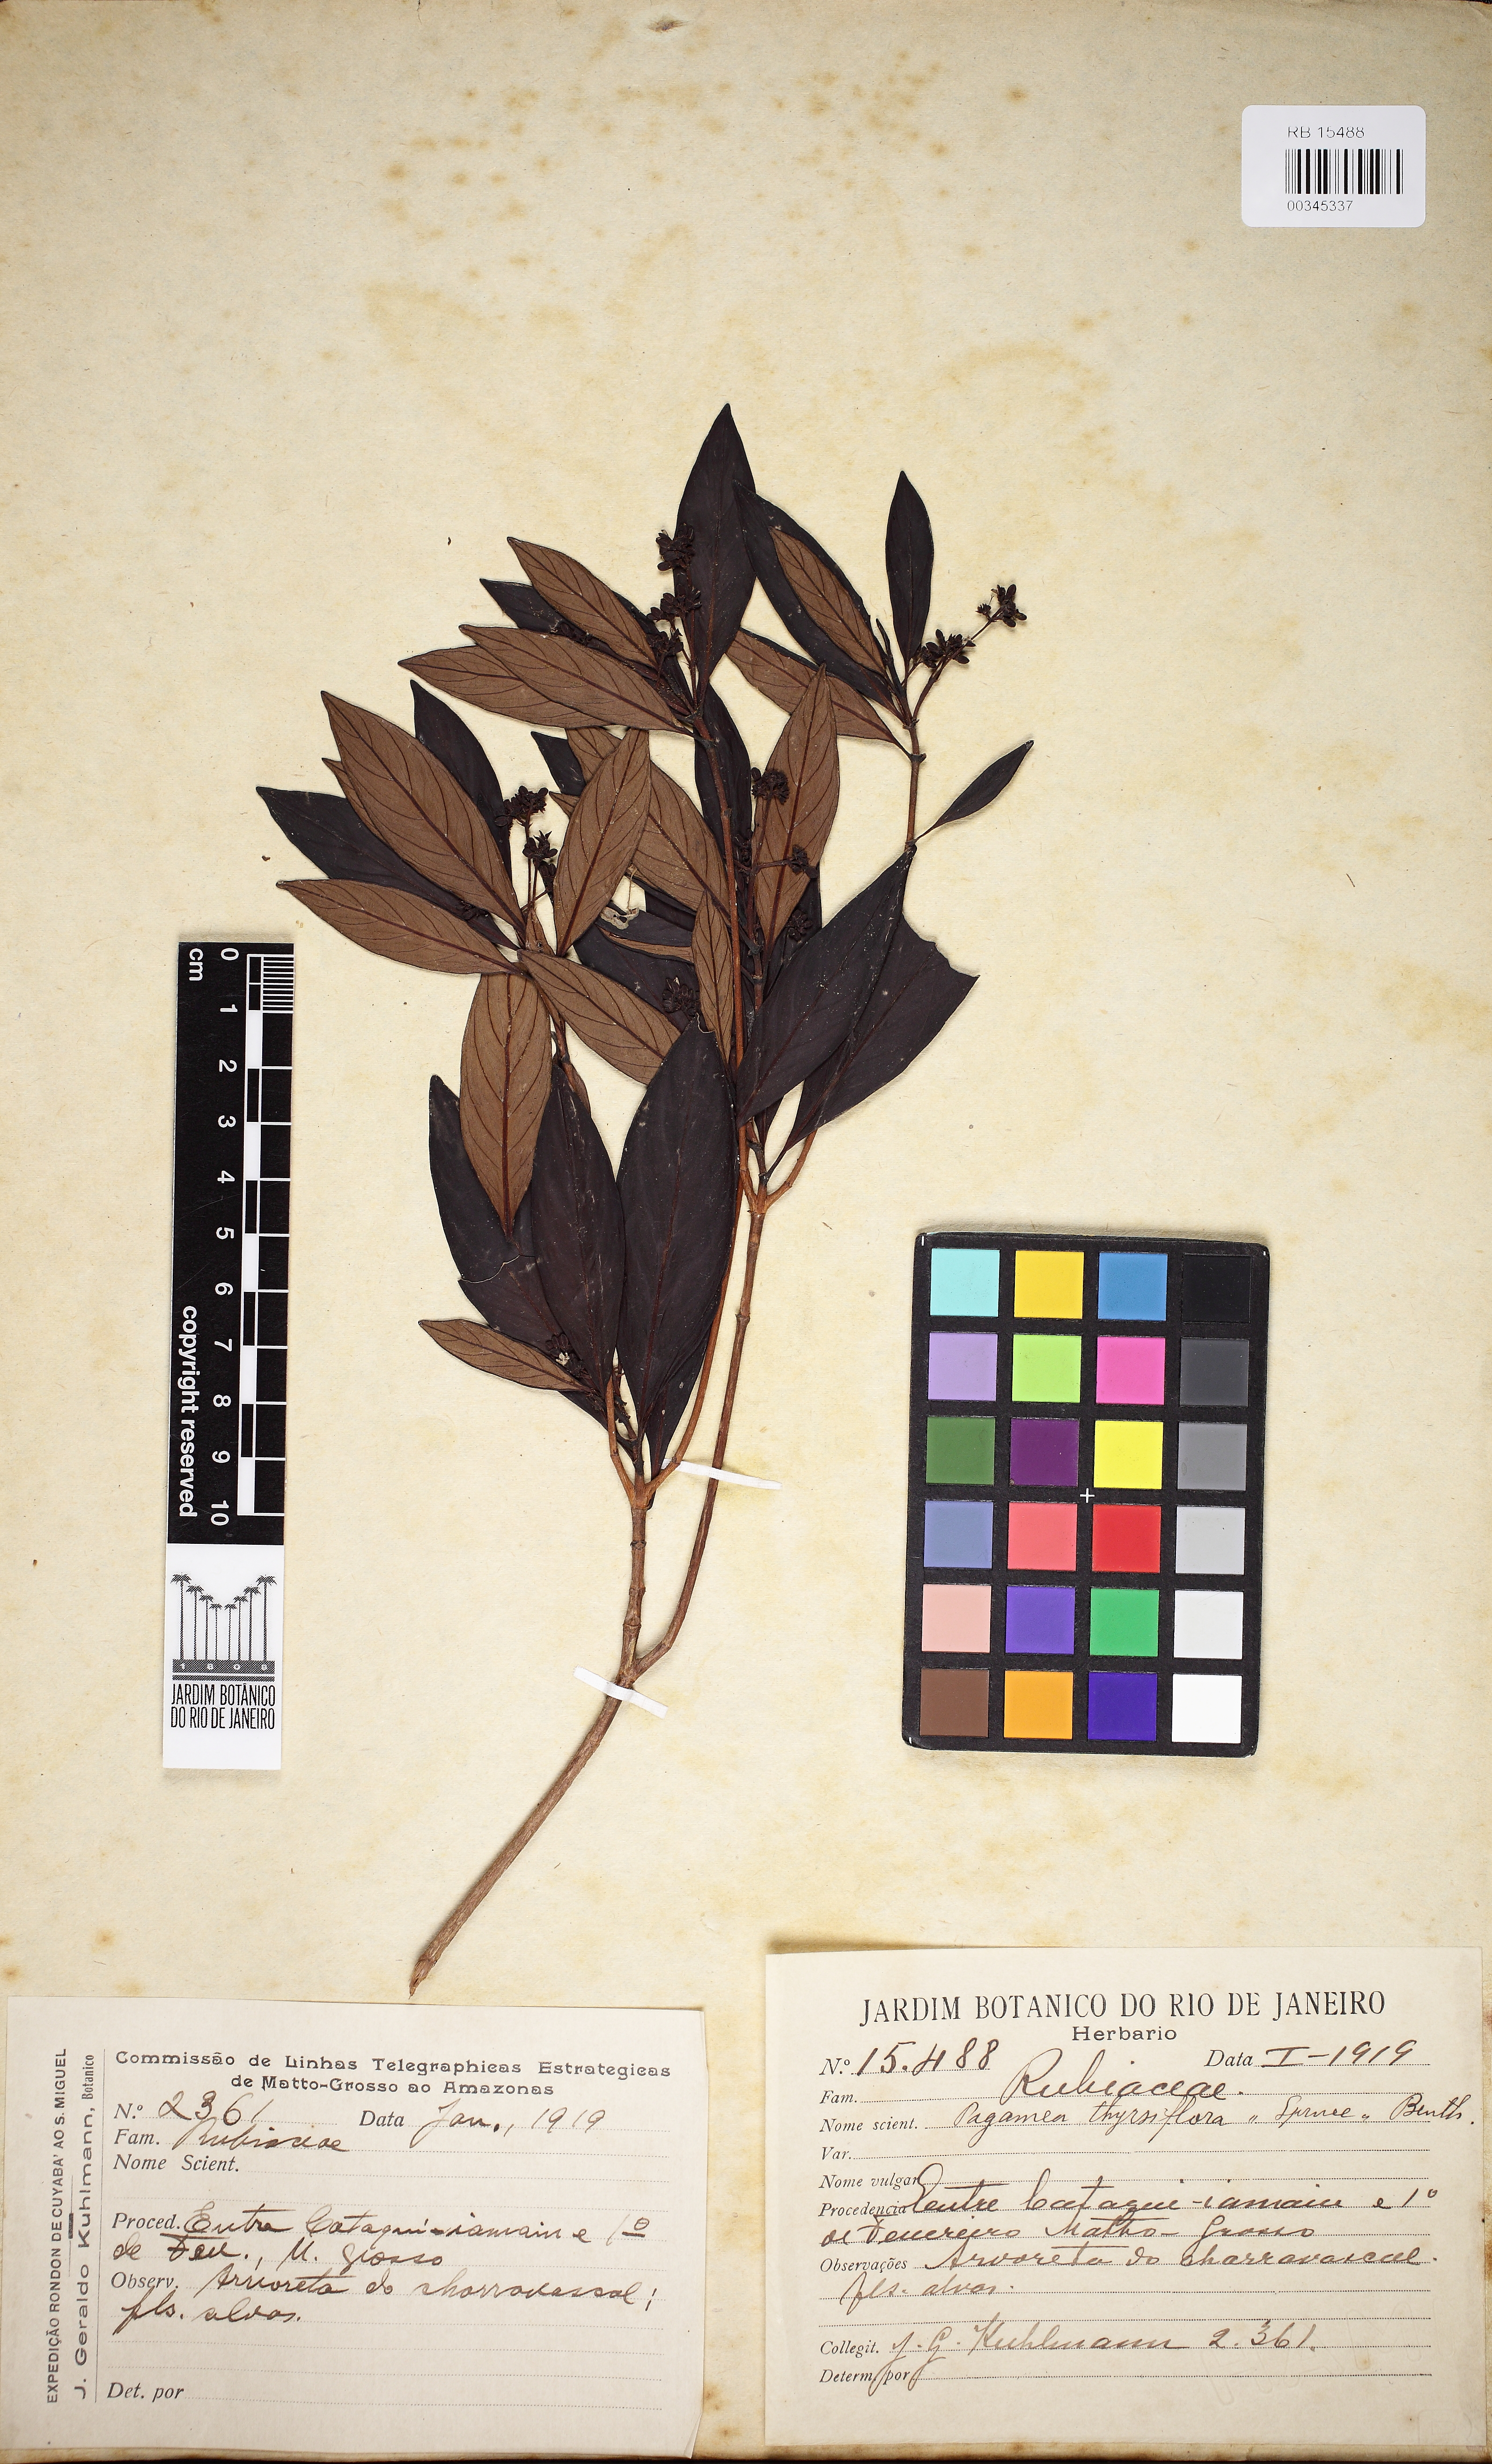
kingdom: Plantae
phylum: Tracheophyta
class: Magnoliopsida
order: Gentianales
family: Rubiaceae
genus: Pagamea
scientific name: Pagamea thyrsiflora
